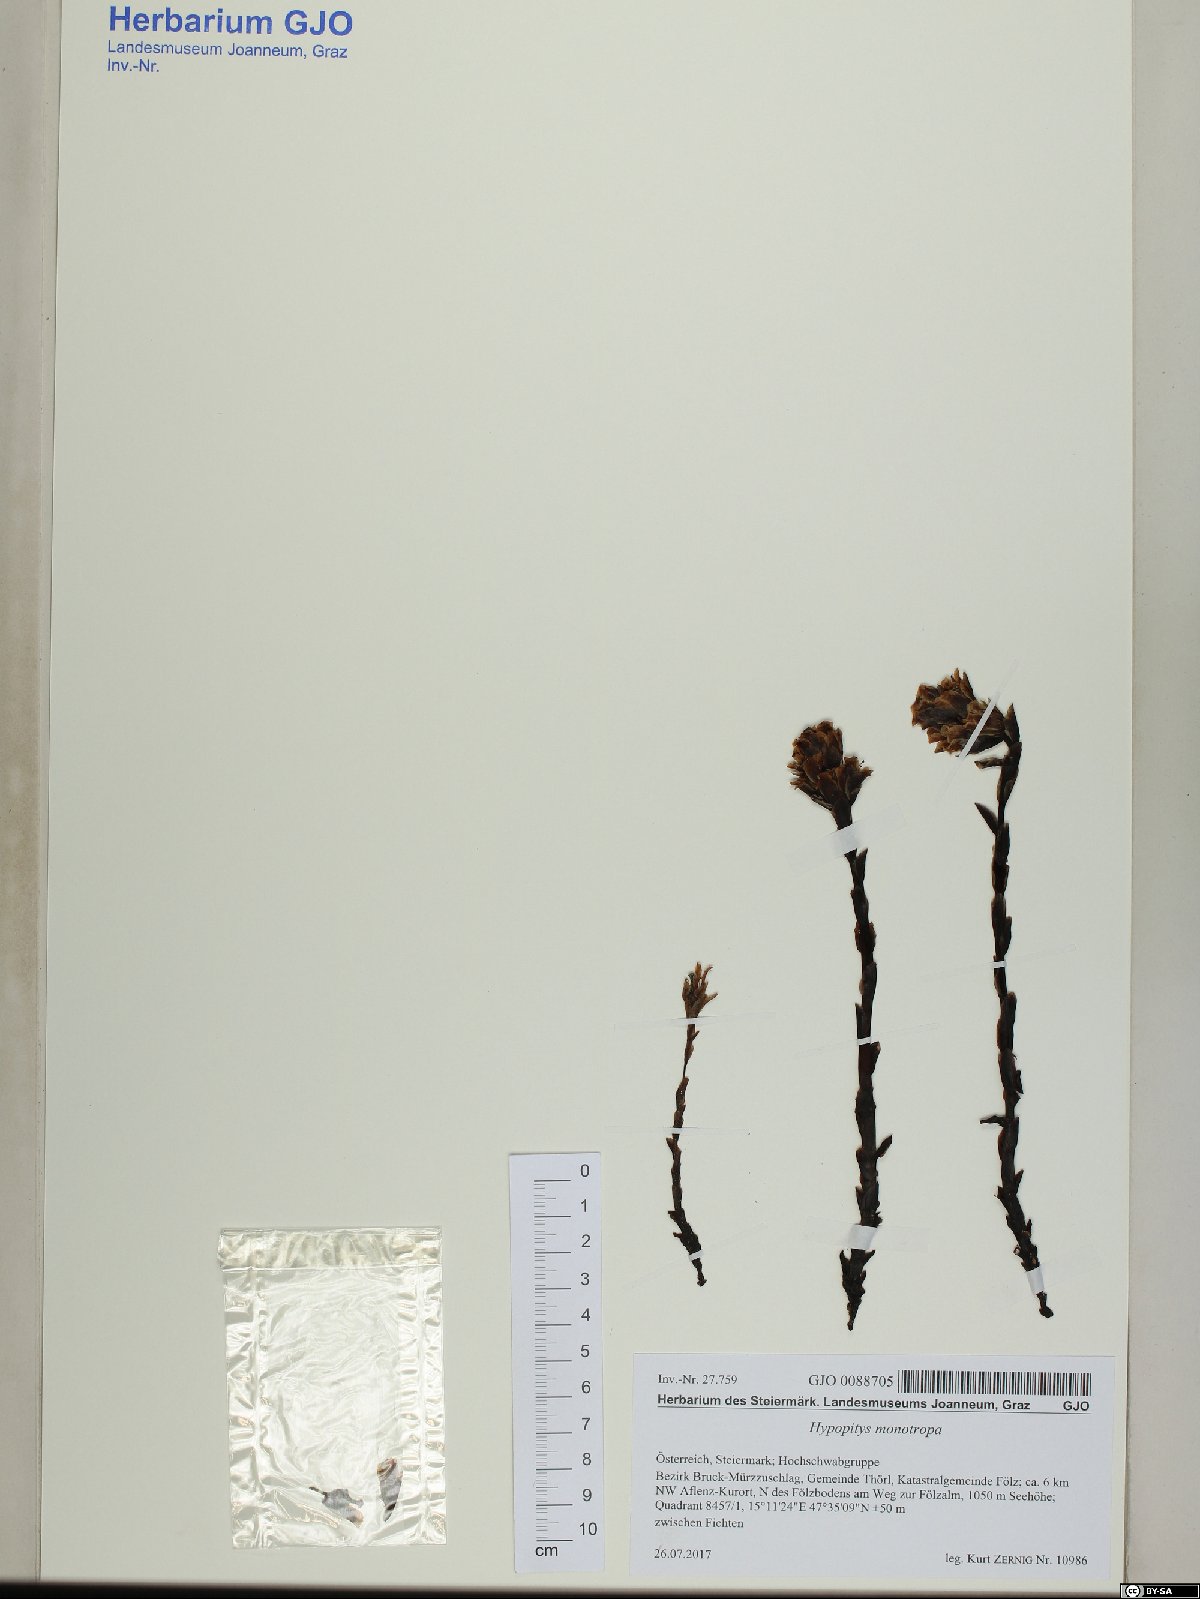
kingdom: Plantae
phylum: Tracheophyta
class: Magnoliopsida
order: Ericales
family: Ericaceae
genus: Hypopitys
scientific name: Hypopitys monotropa
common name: Yellow bird's-nest
